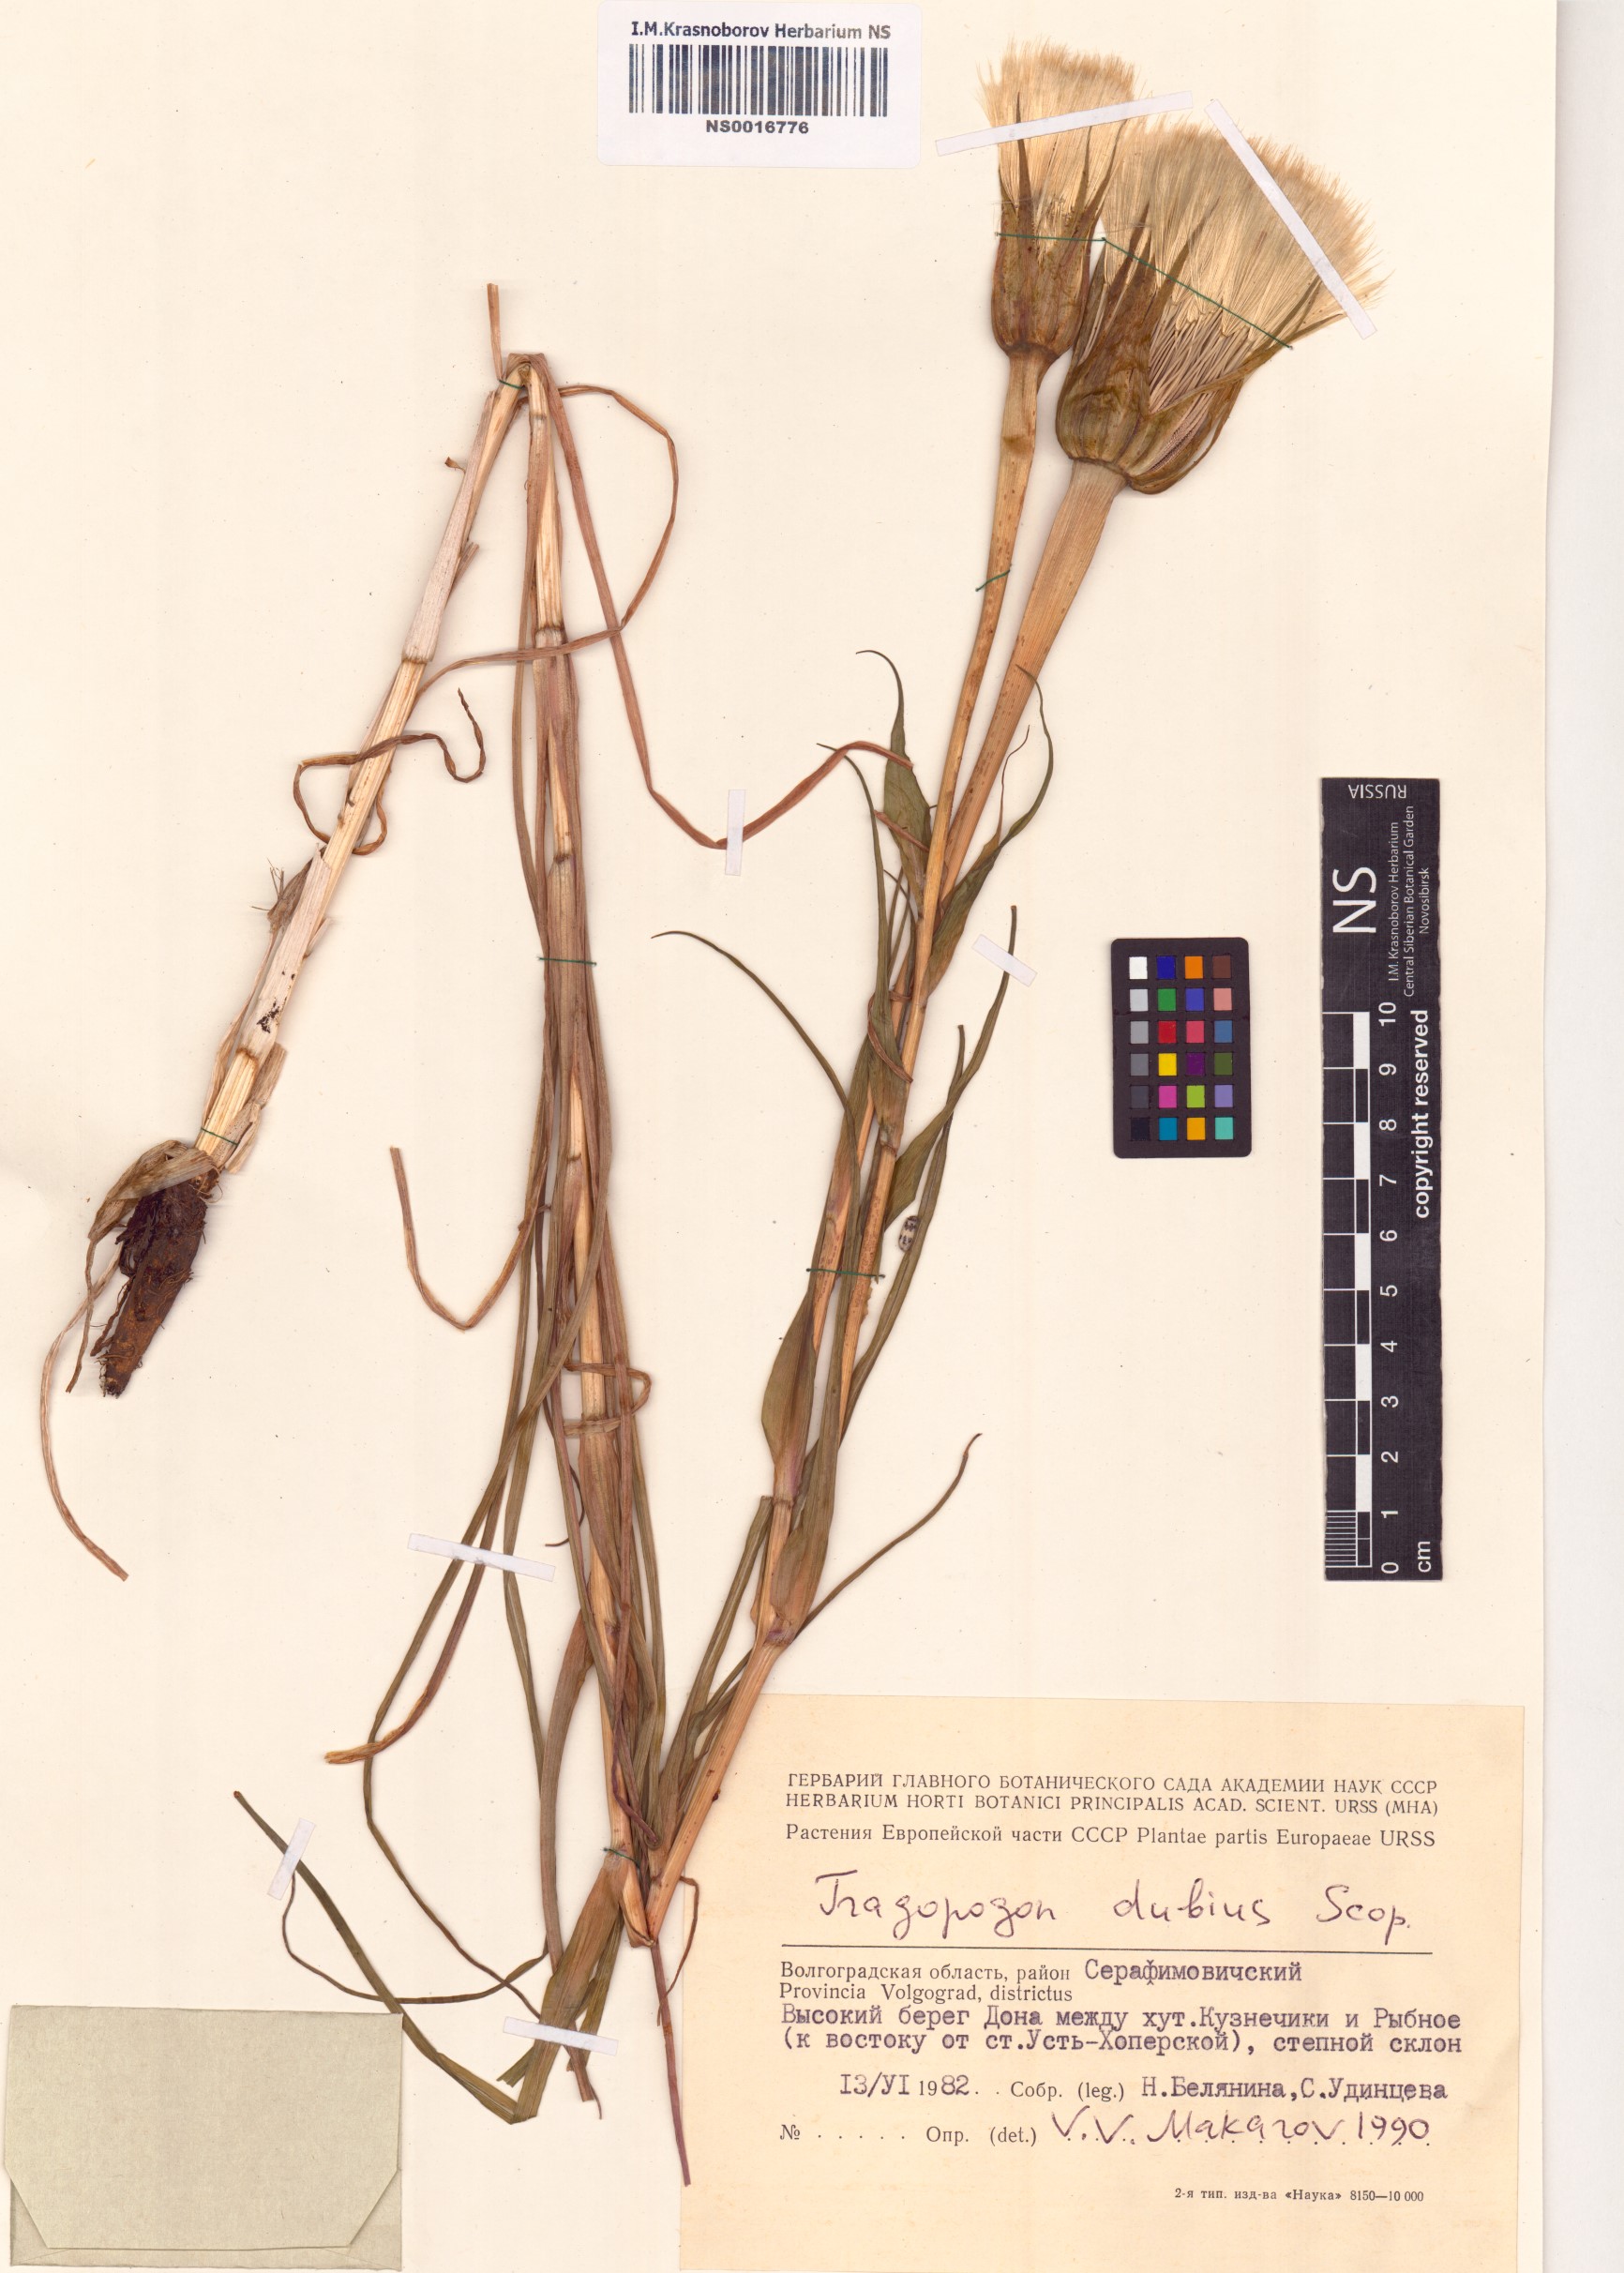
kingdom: Plantae
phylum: Tracheophyta
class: Magnoliopsida
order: Asterales
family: Asteraceae
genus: Tragopogon
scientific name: Tragopogon dubius
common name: Yellow salsify
